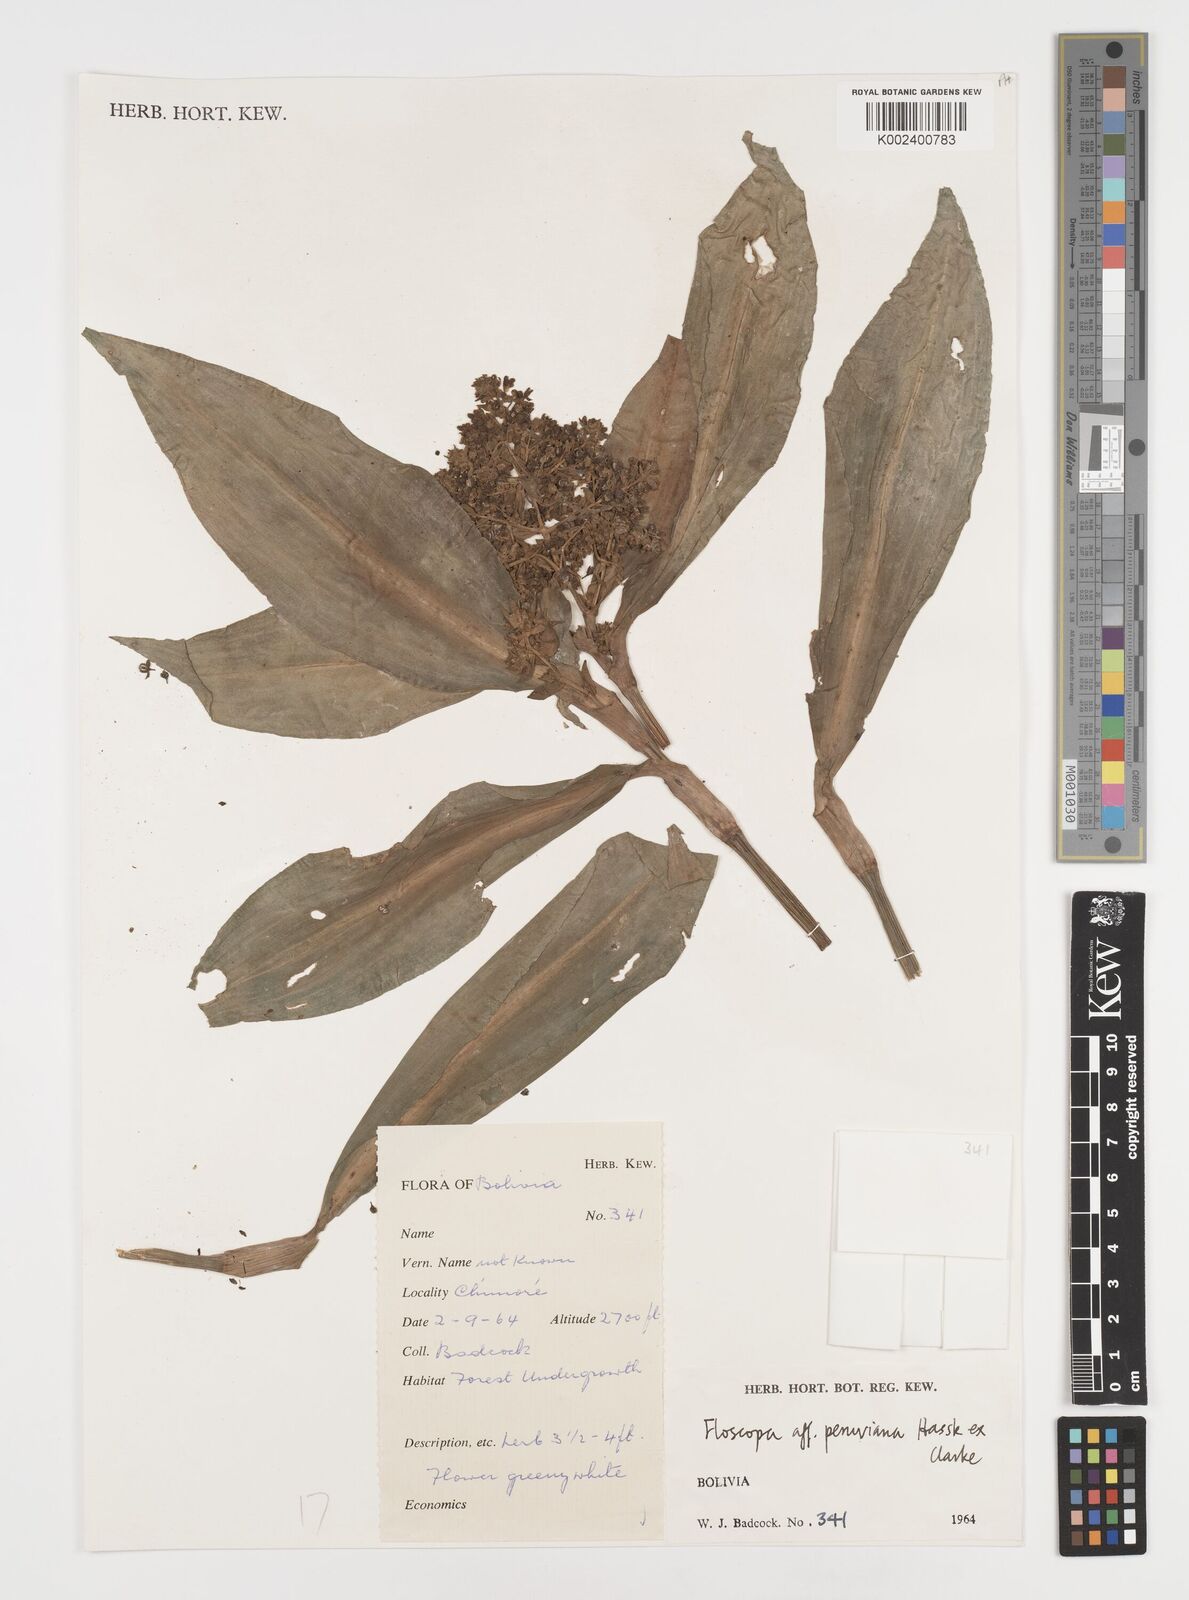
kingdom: Plantae
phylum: Tracheophyta
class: Liliopsida
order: Commelinales
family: Commelinaceae
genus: Floscopa
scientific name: Floscopa peruviana
